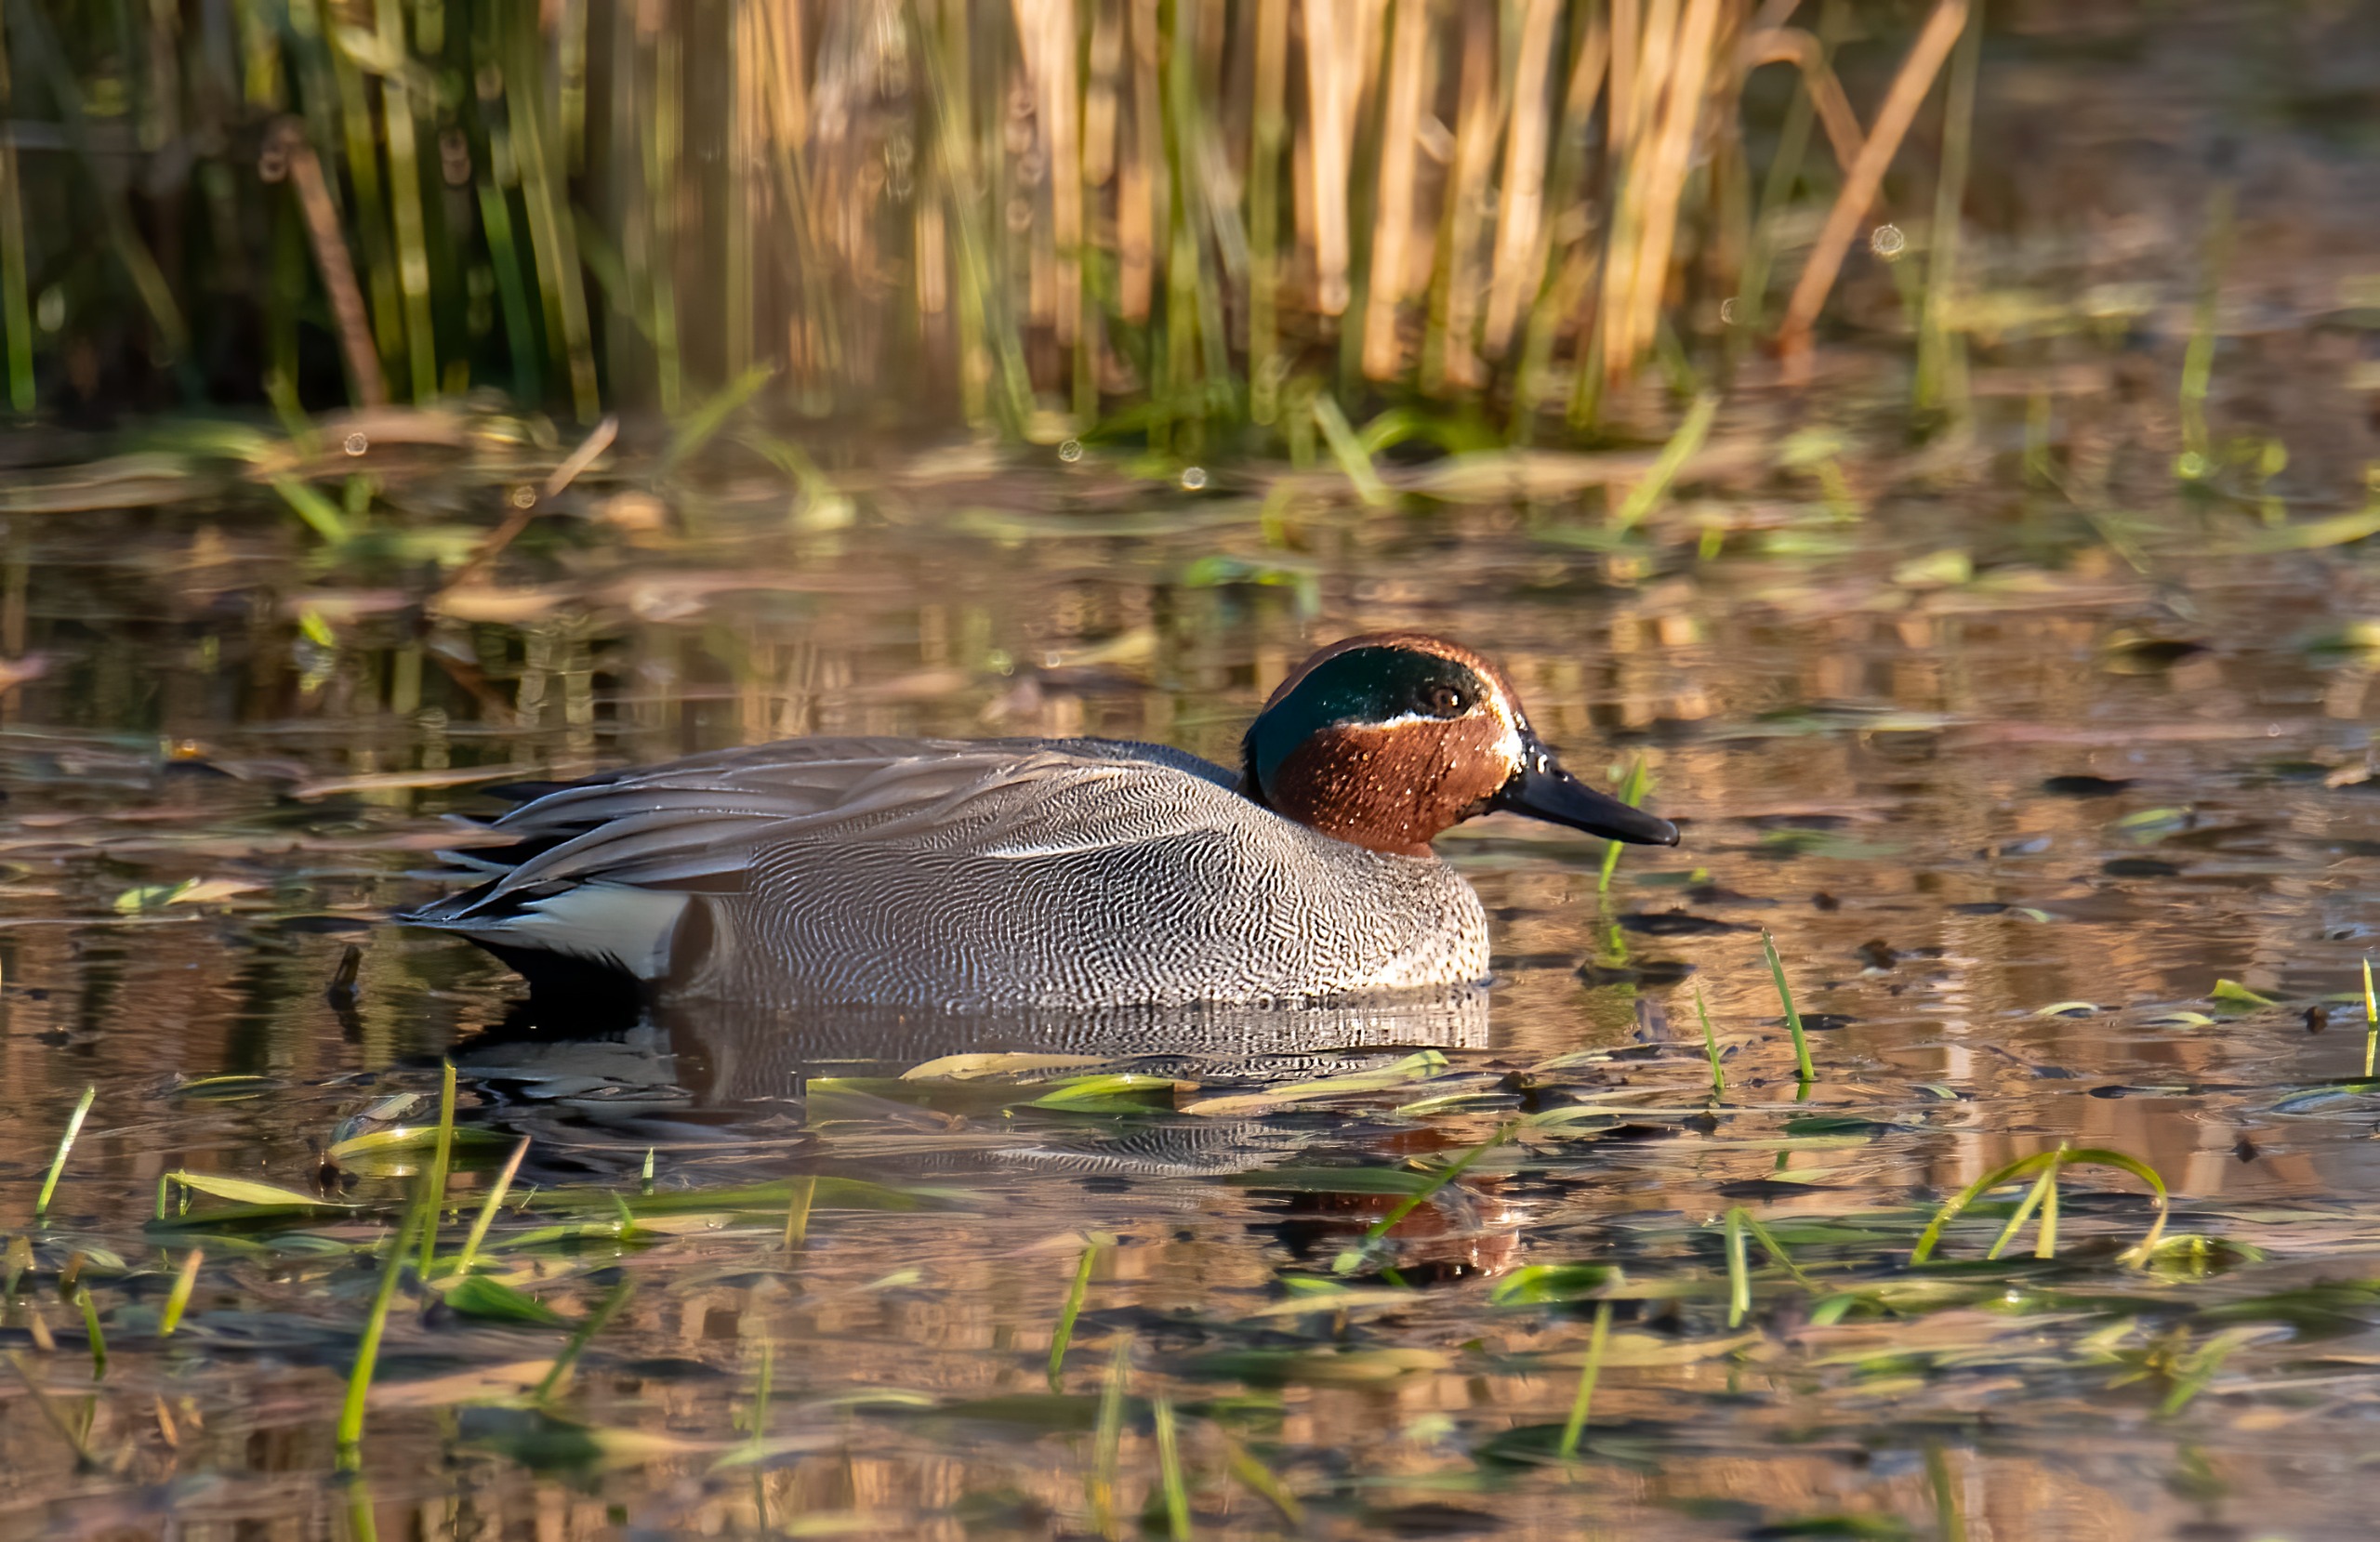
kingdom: Animalia
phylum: Chordata
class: Aves
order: Anseriformes
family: Anatidae
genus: Anas
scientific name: Anas crecca
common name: Krikand
